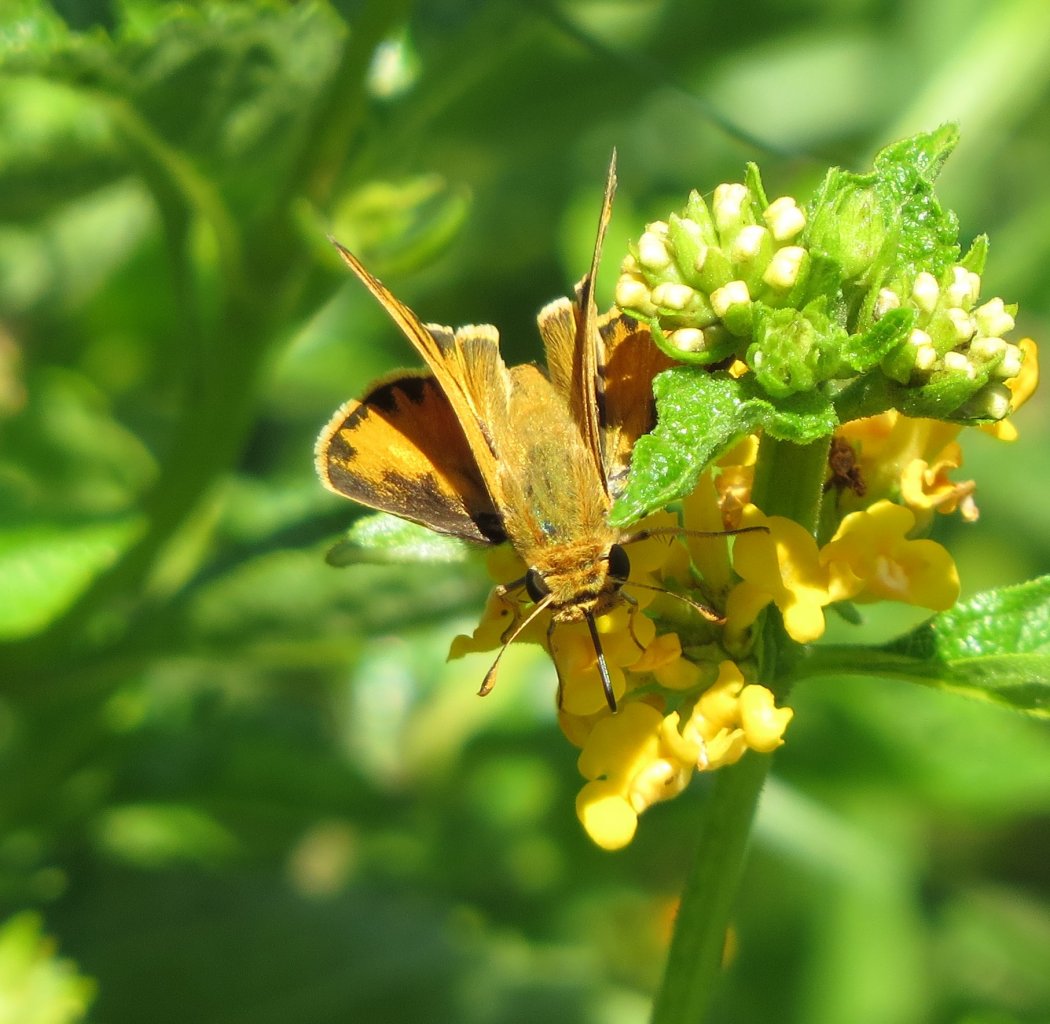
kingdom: Animalia
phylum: Arthropoda
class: Insecta
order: Lepidoptera
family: Hesperiidae
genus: Hylephila
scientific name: Hylephila phyleus
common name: Fiery Skipper
